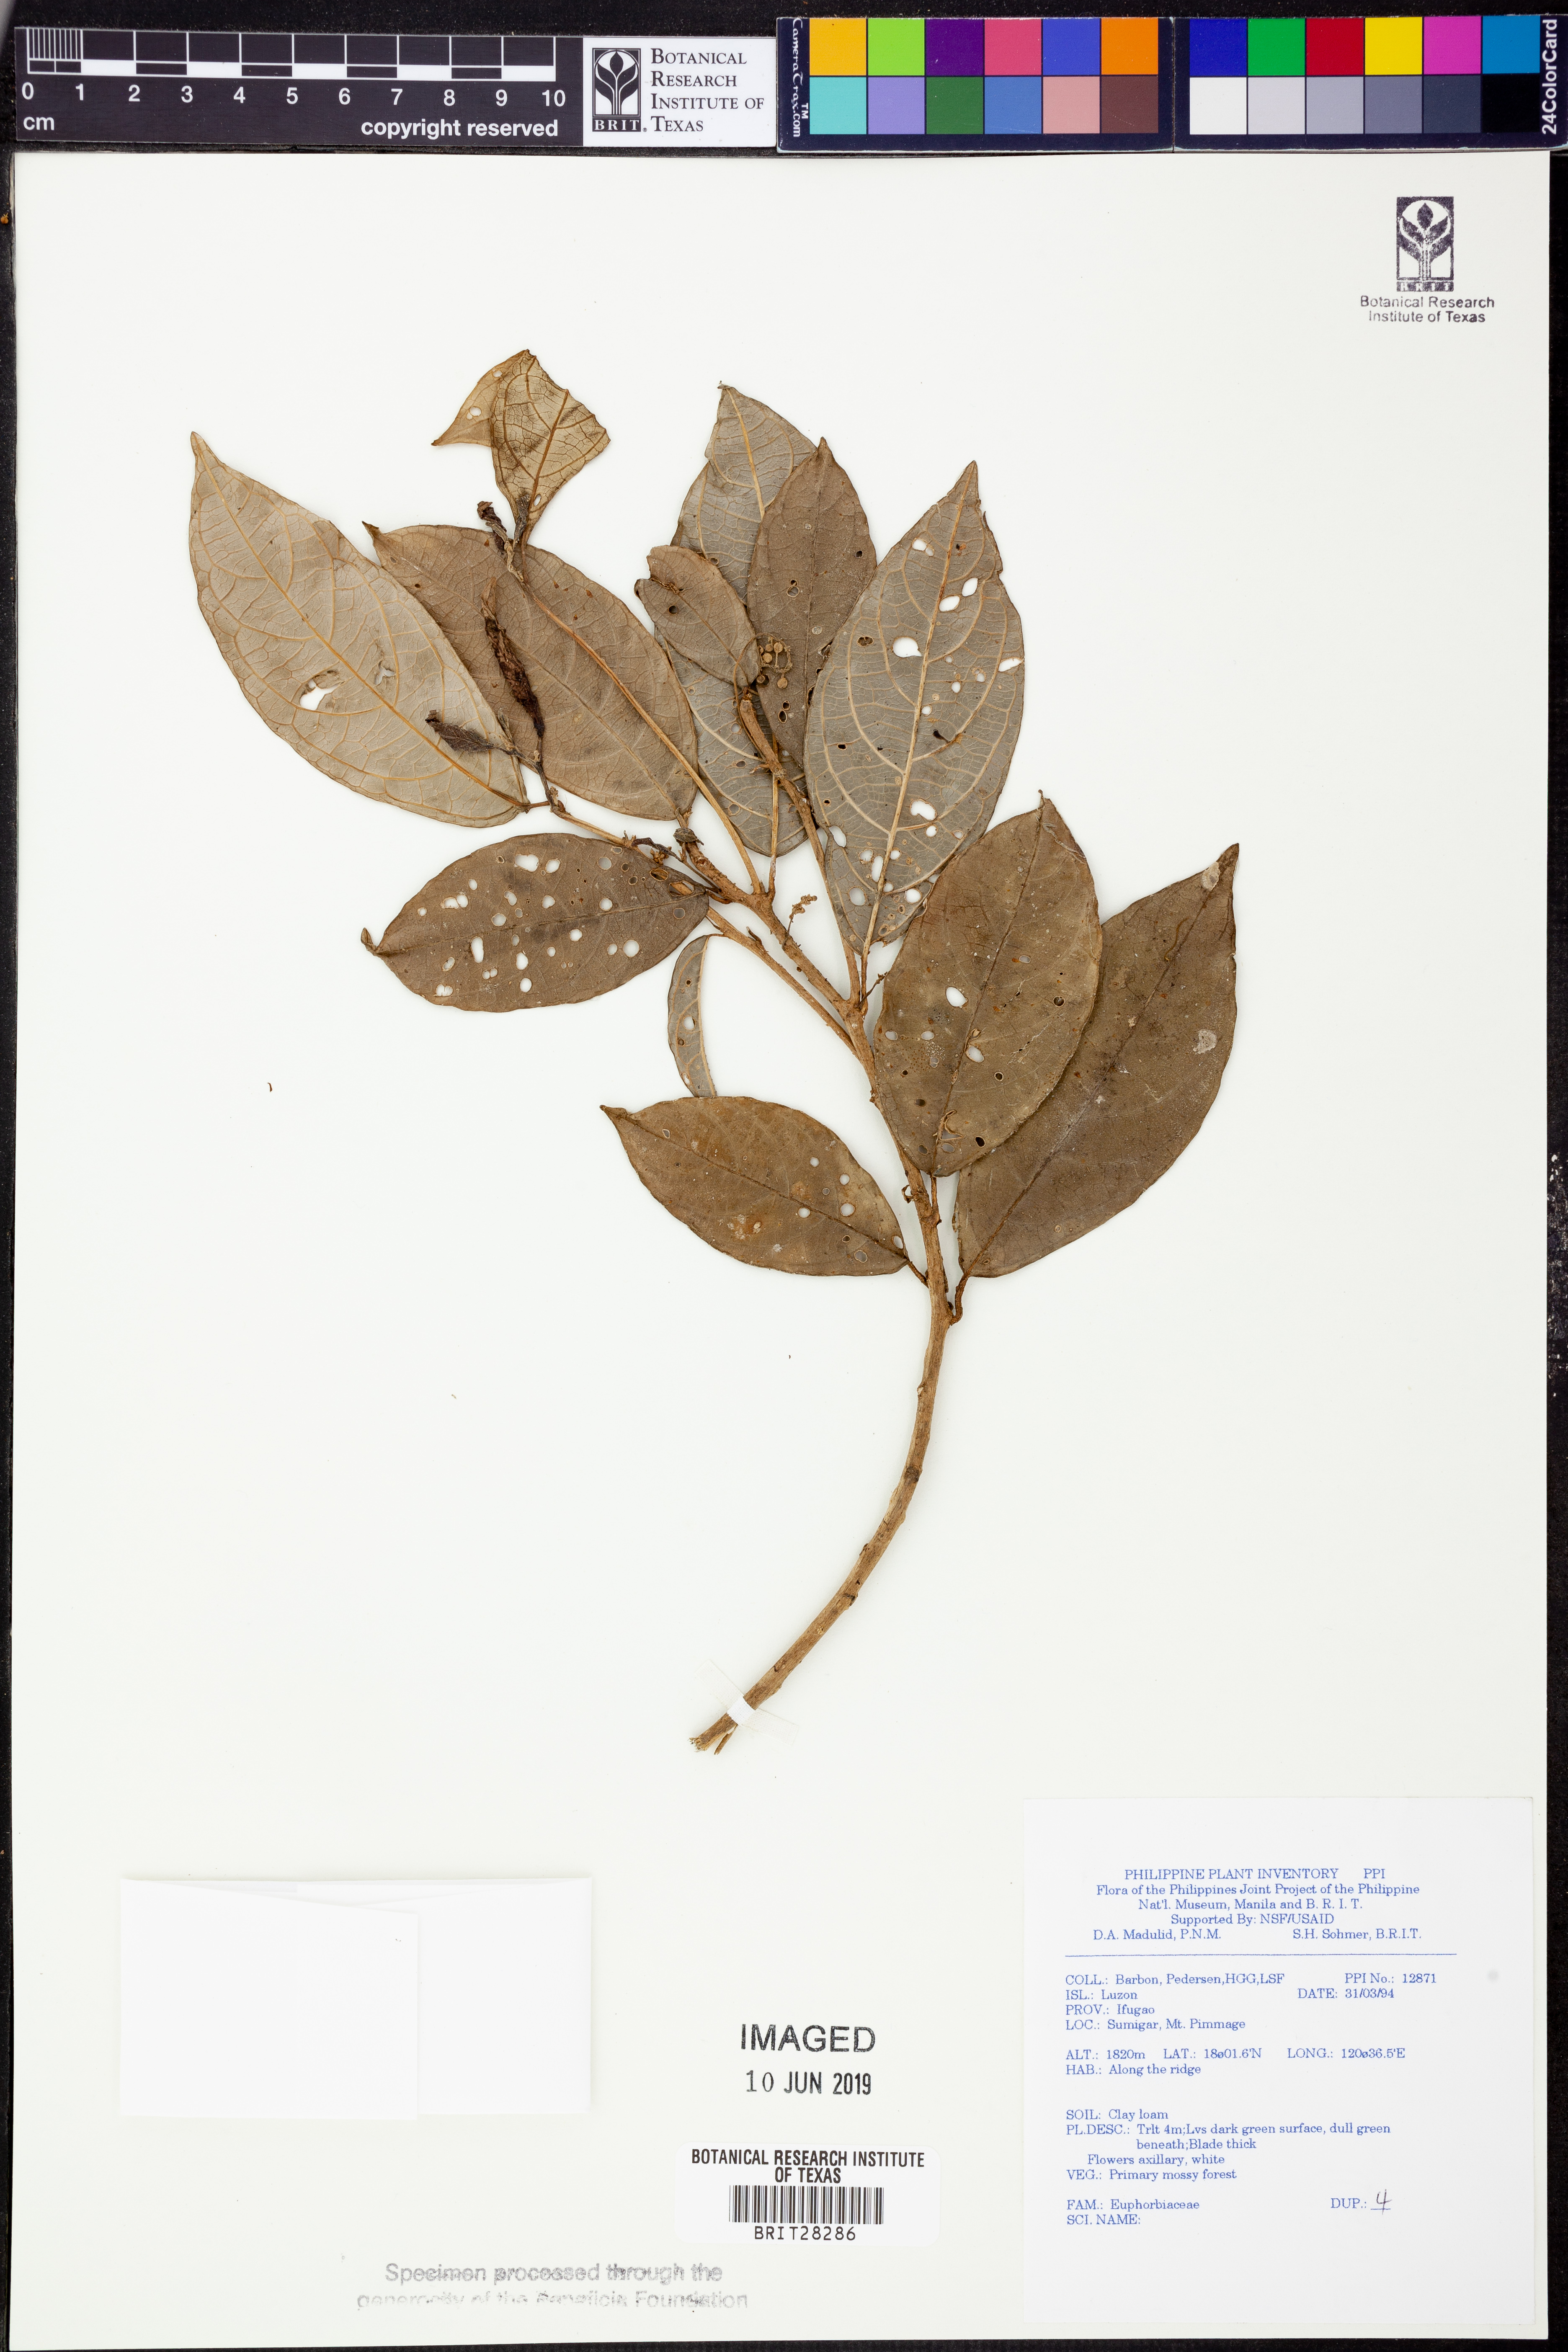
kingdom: Plantae
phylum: Tracheophyta
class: Magnoliopsida
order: Malpighiales
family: Euphorbiaceae
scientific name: Euphorbiaceae
